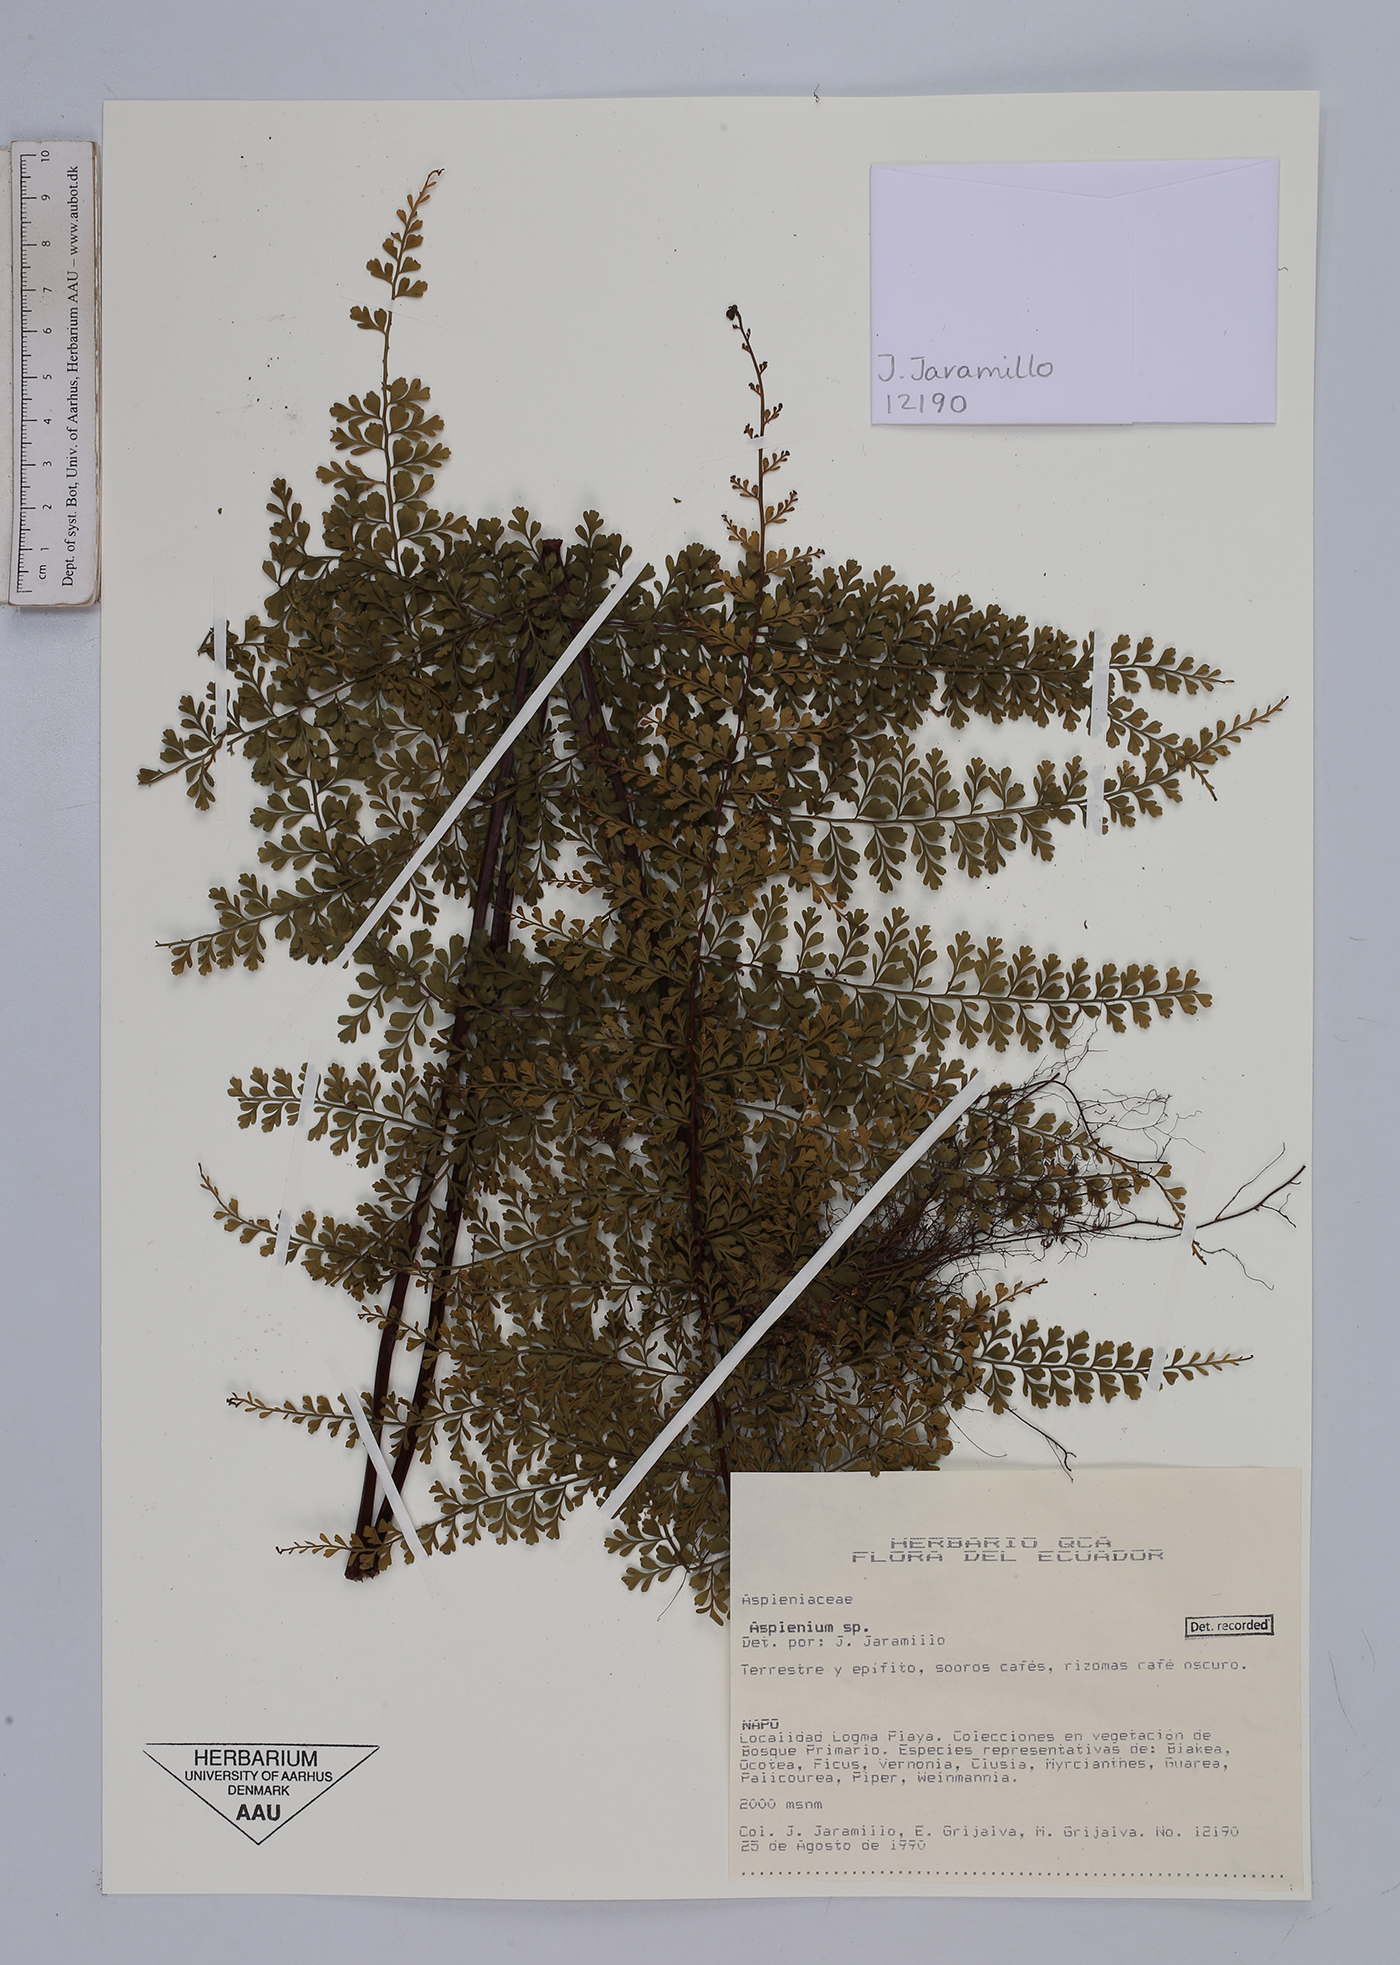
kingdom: Plantae
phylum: Tracheophyta
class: Polypodiopsida
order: Polypodiales
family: Aspleniaceae
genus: Asplenium
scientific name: Asplenium
